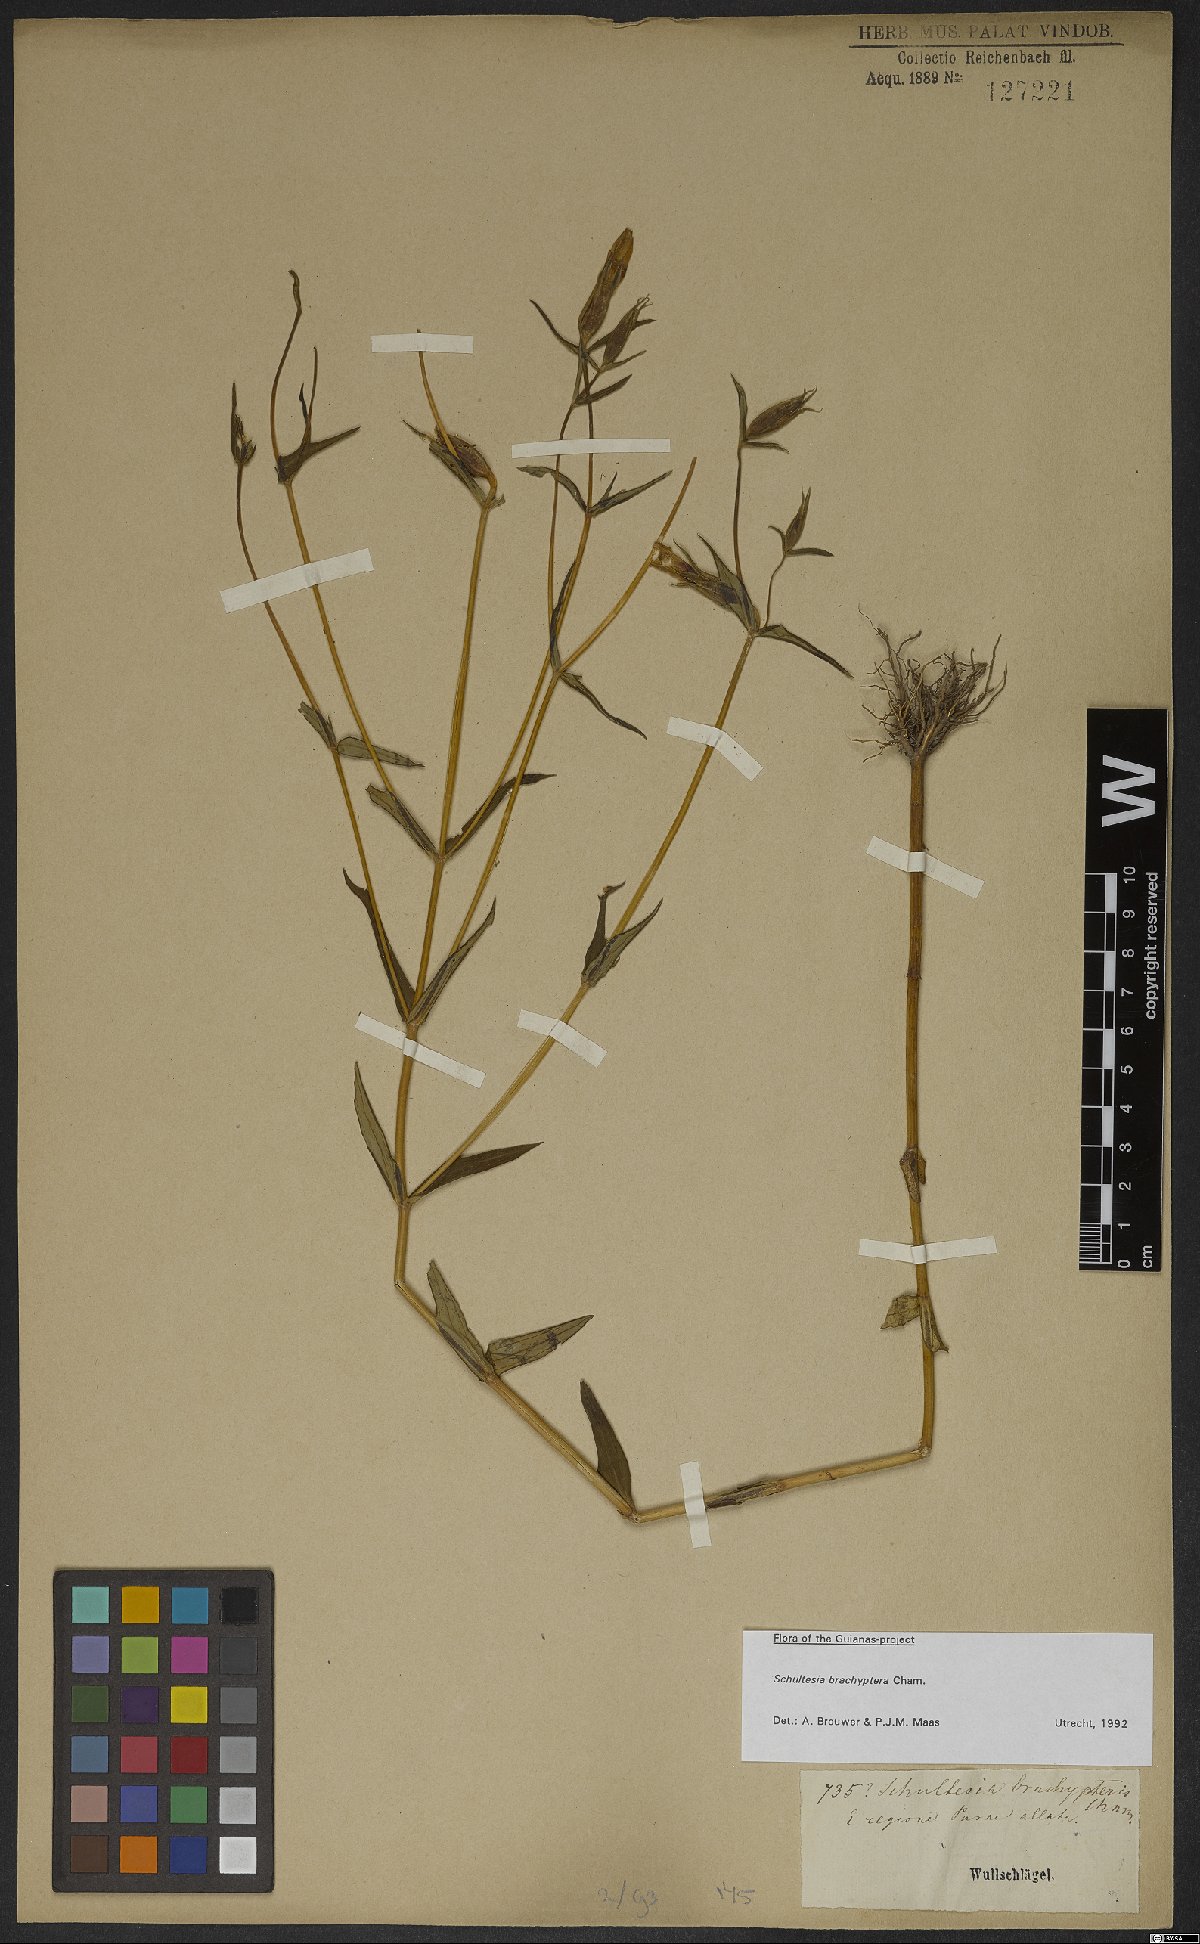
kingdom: Plantae
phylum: Tracheophyta
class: Magnoliopsida
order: Gentianales
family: Gentianaceae
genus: Schultesia
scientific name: Schultesia brachyptera
